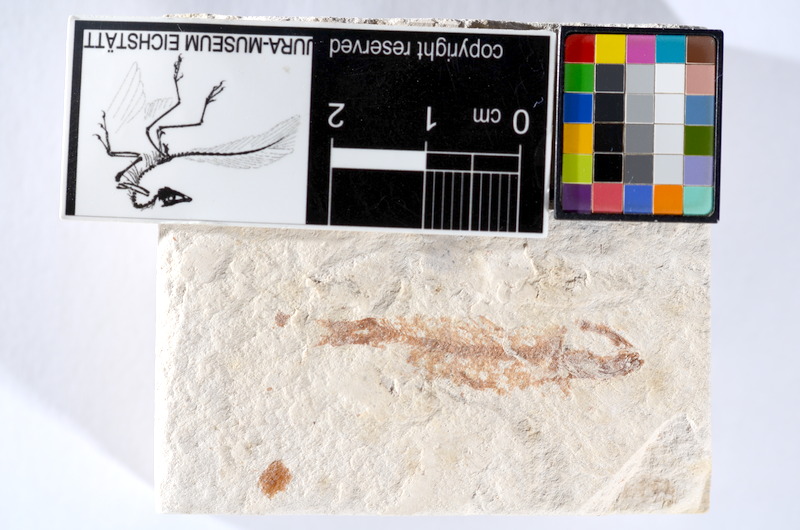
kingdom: Animalia
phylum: Chordata
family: Ascalaboidae
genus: Tharsis
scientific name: Tharsis dubius
